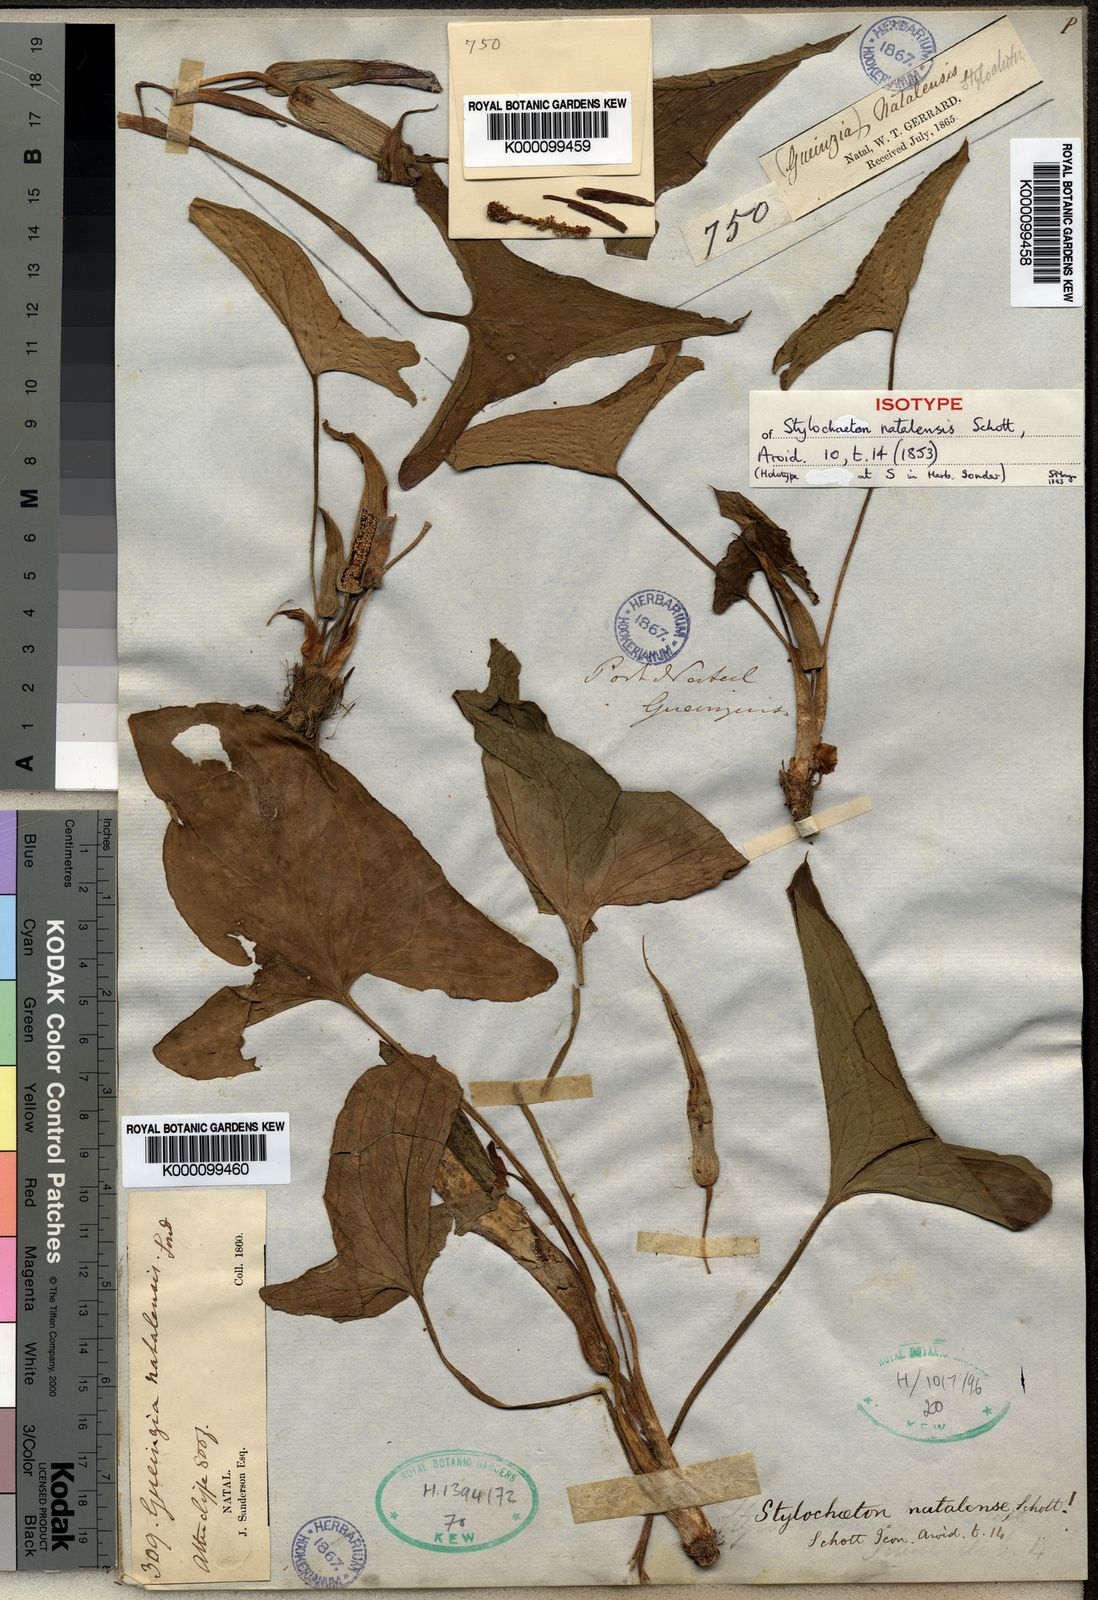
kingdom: Plantae
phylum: Tracheophyta
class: Liliopsida
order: Alismatales
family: Araceae
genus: Stylochaeton
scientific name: Stylochaeton
